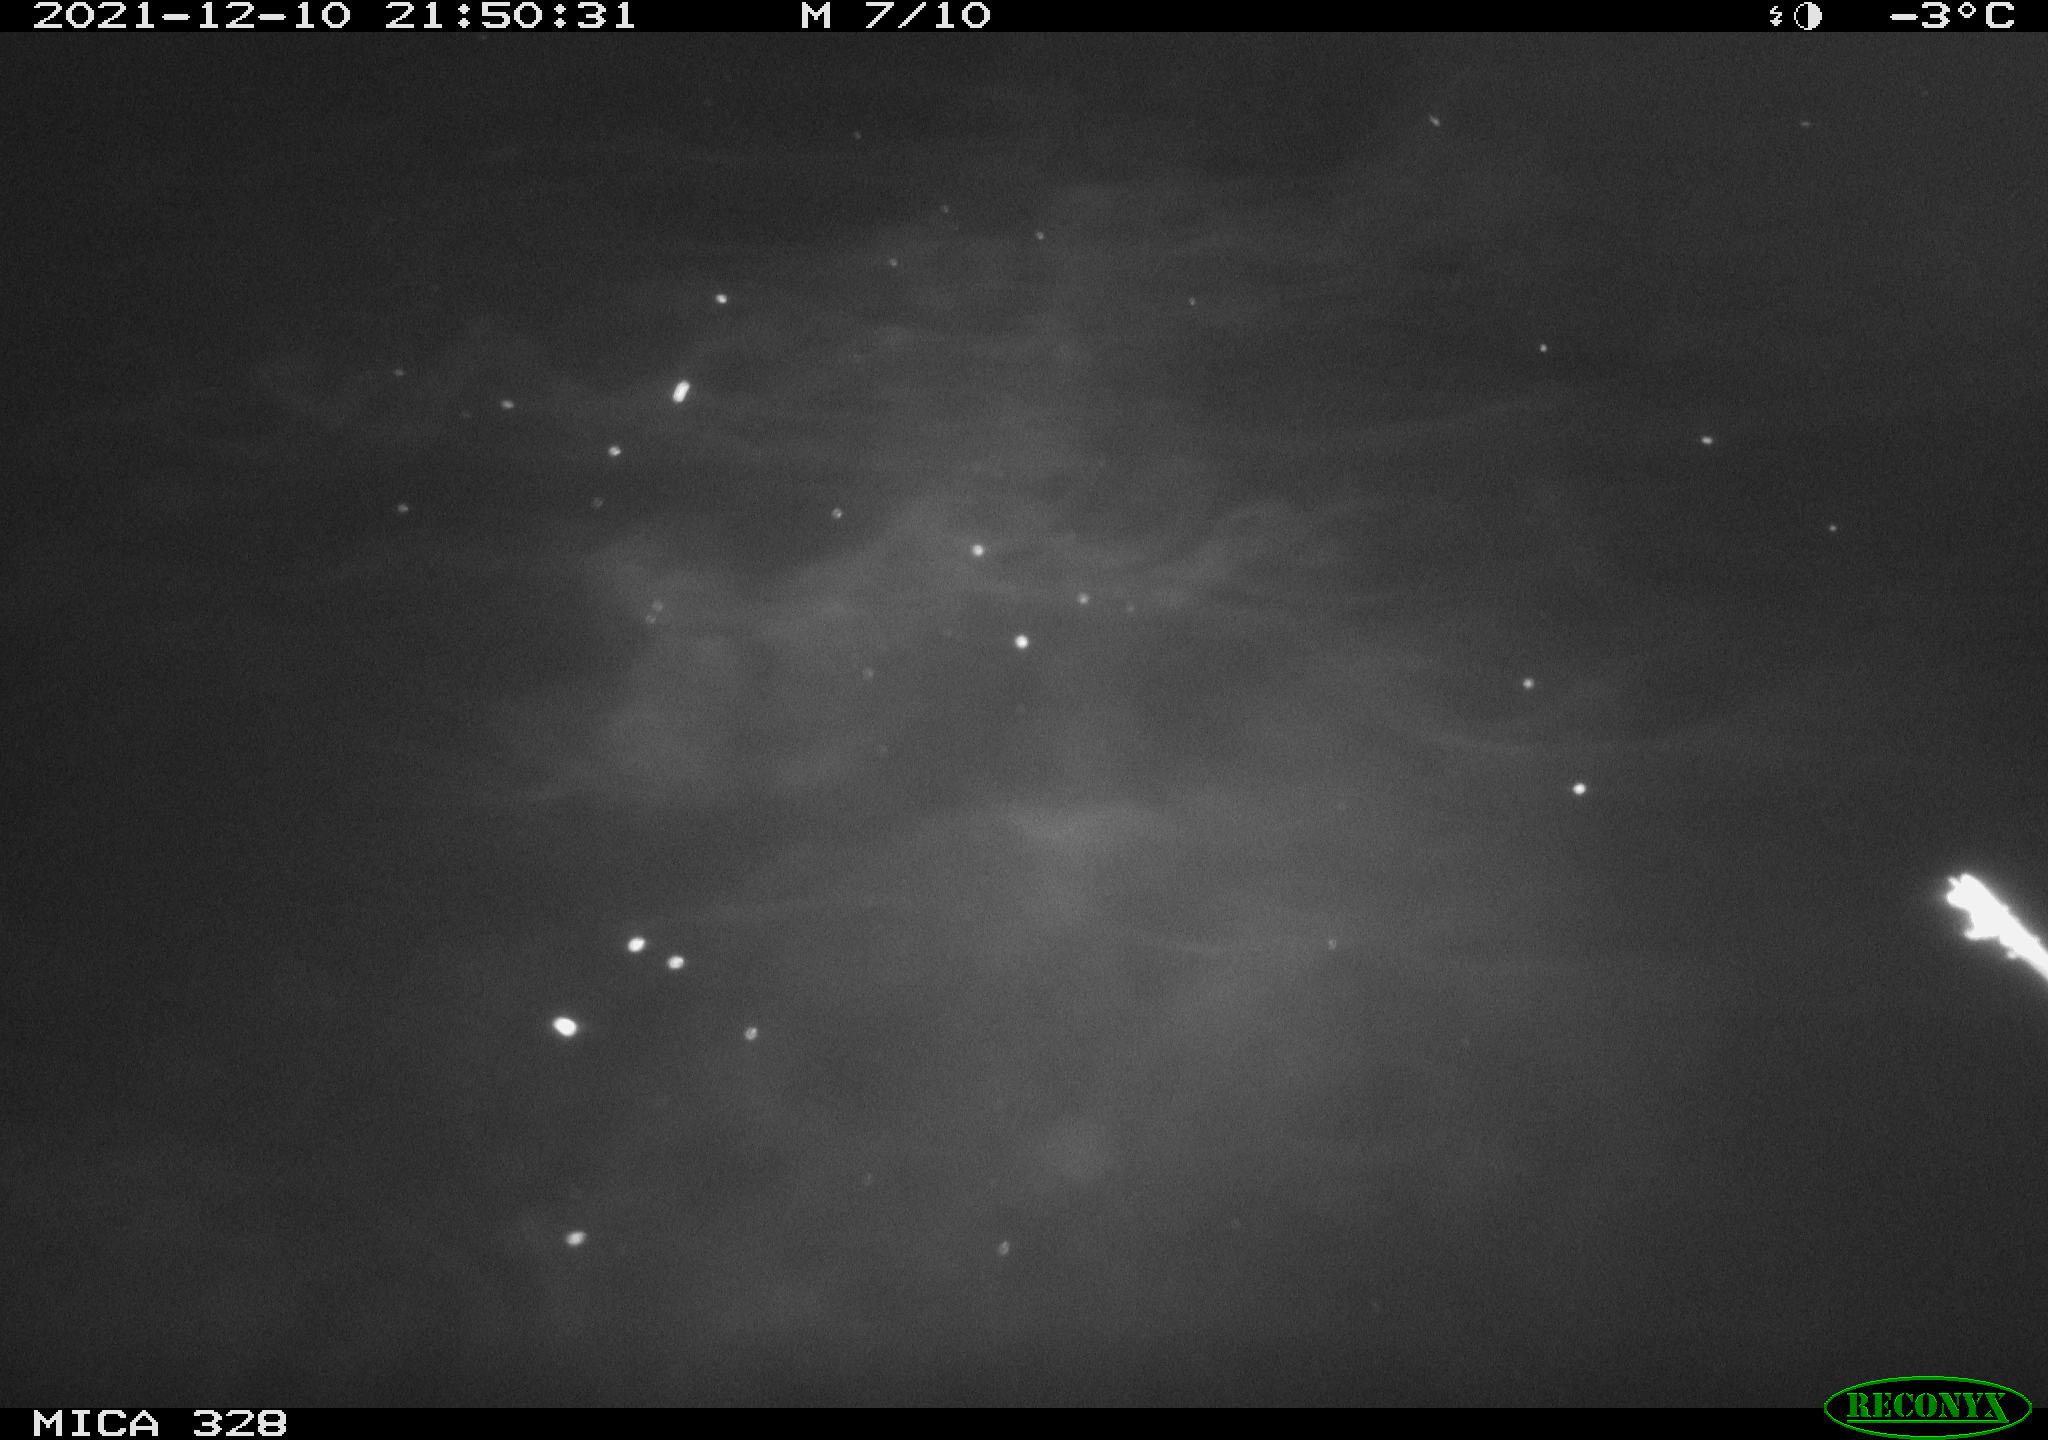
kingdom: Animalia
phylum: Chordata
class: Aves
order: Anseriformes
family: Anatidae
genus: Anas
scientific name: Anas platyrhynchos
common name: Mallard
